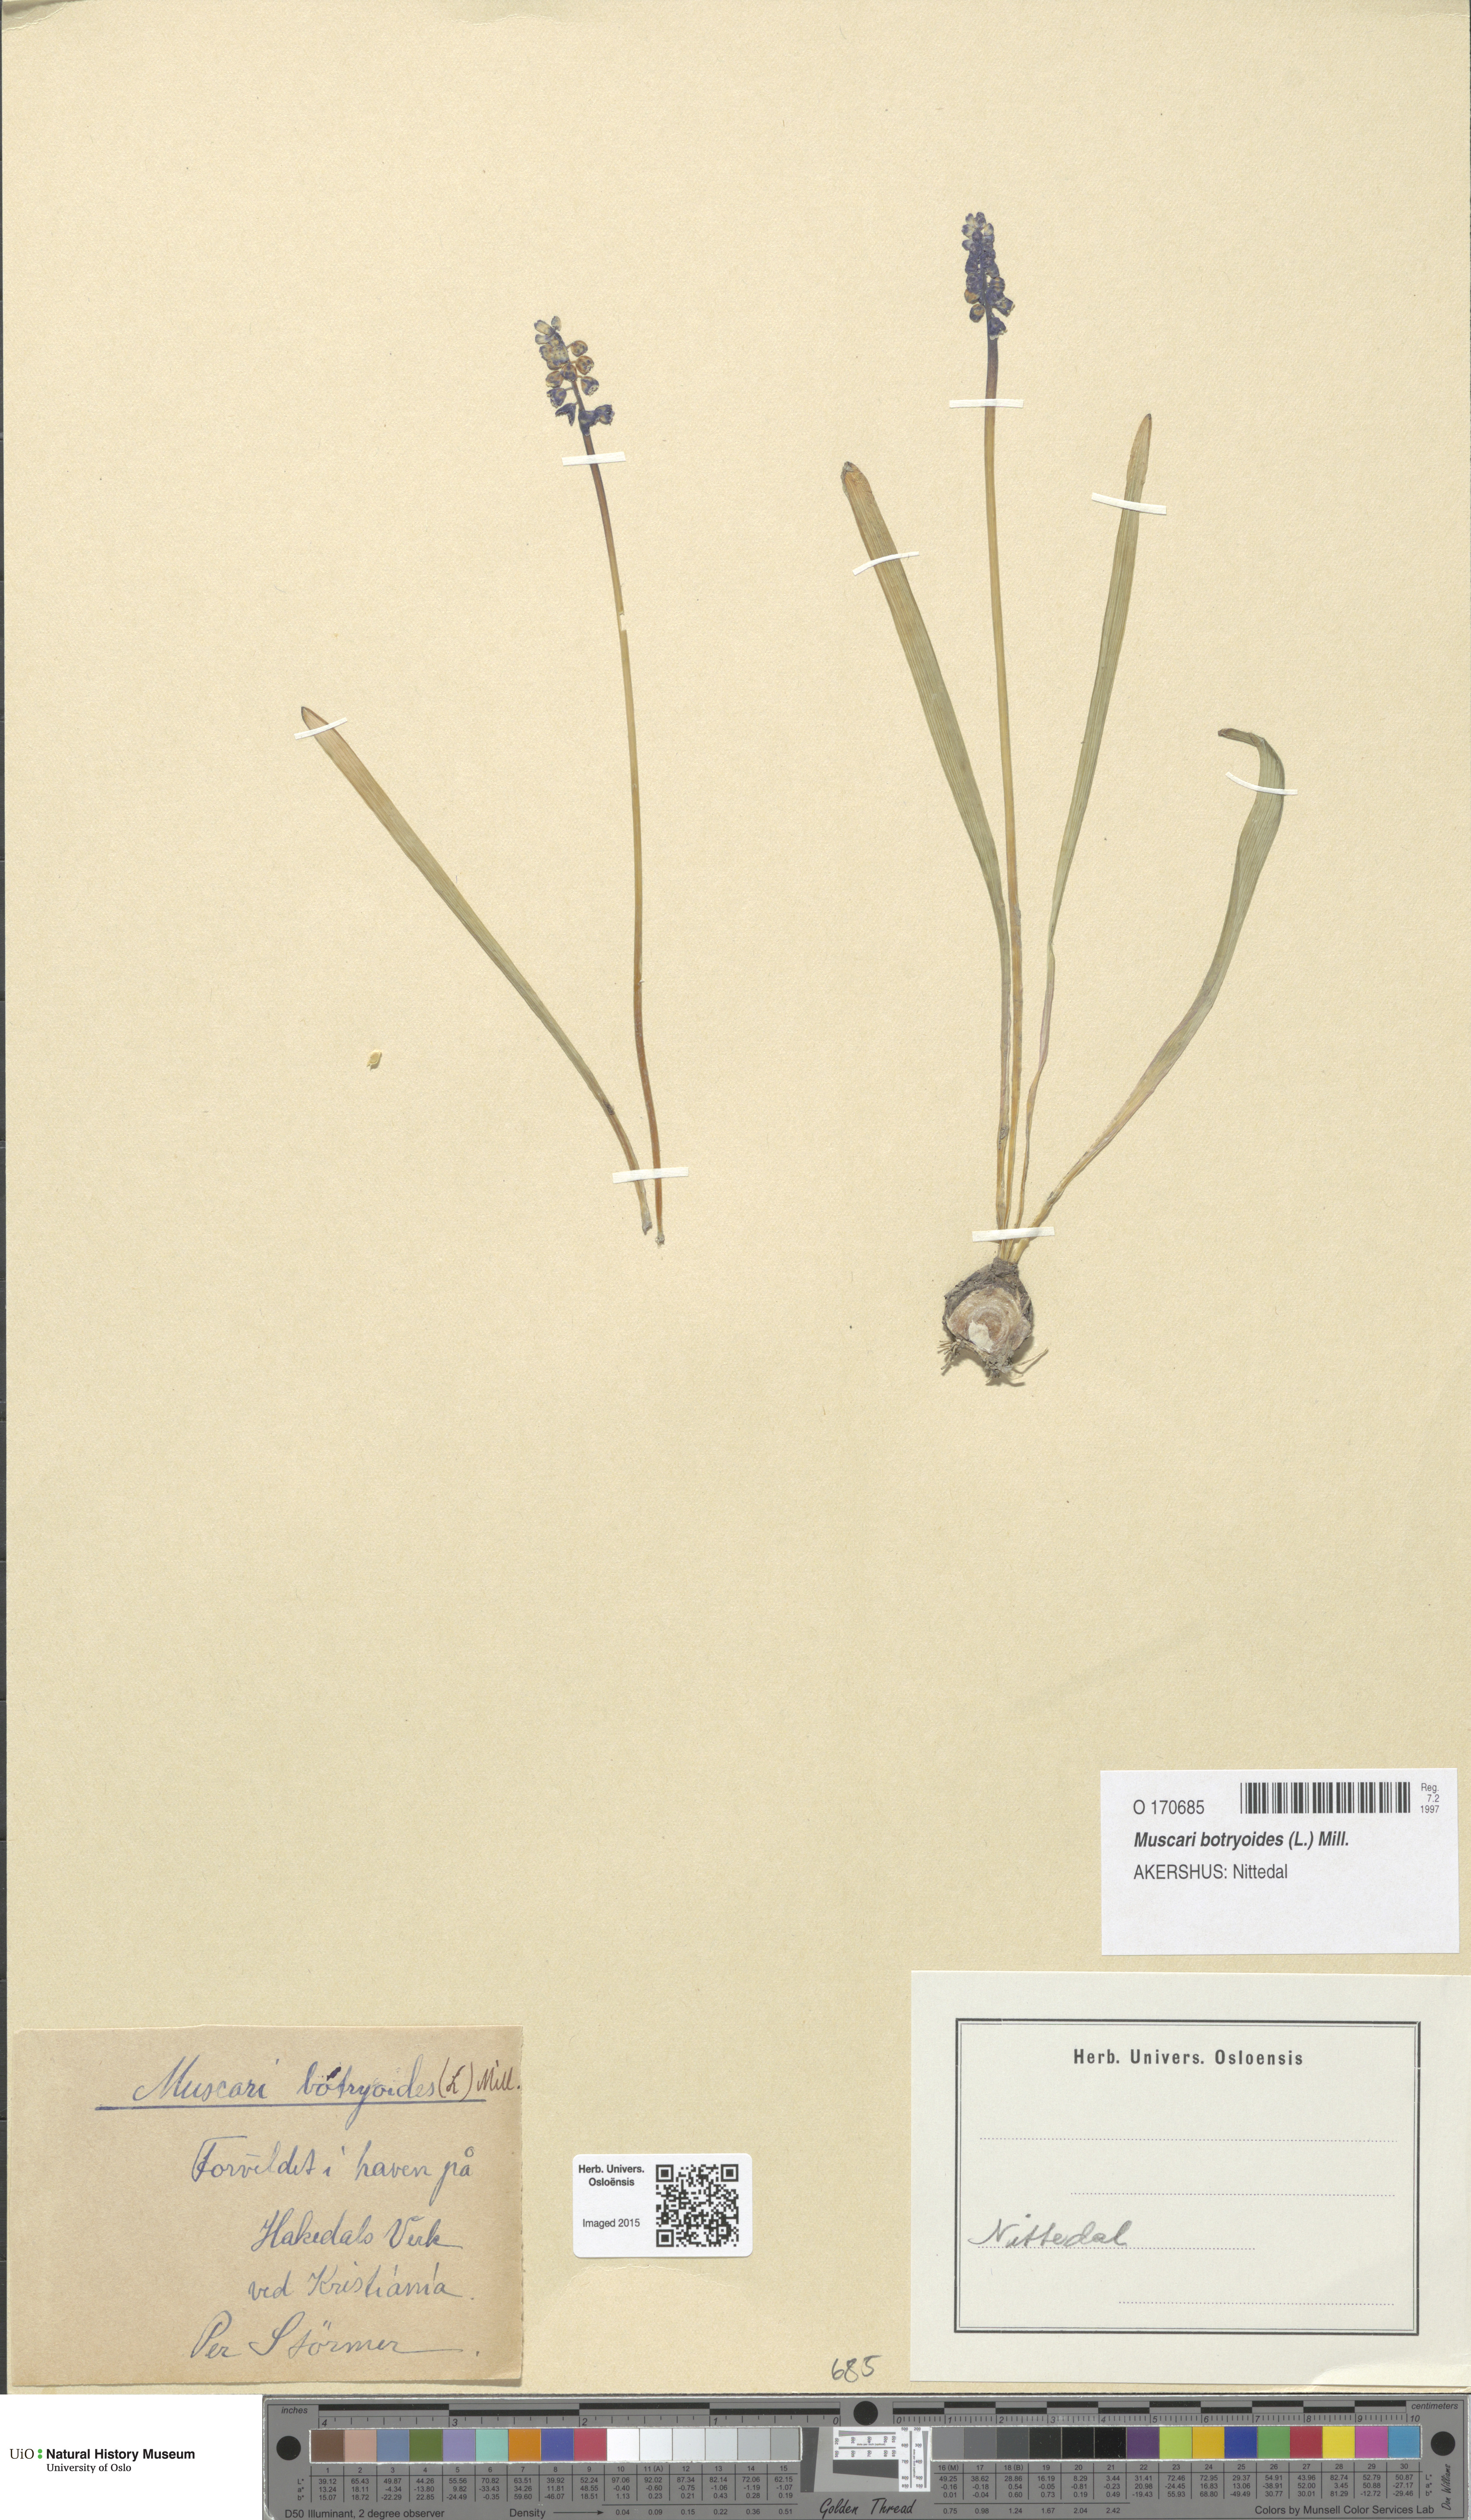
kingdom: Plantae
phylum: Tracheophyta
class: Liliopsida
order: Asparagales
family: Asparagaceae
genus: Muscari
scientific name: Muscari botryoides
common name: Compact grape-hyacinth
